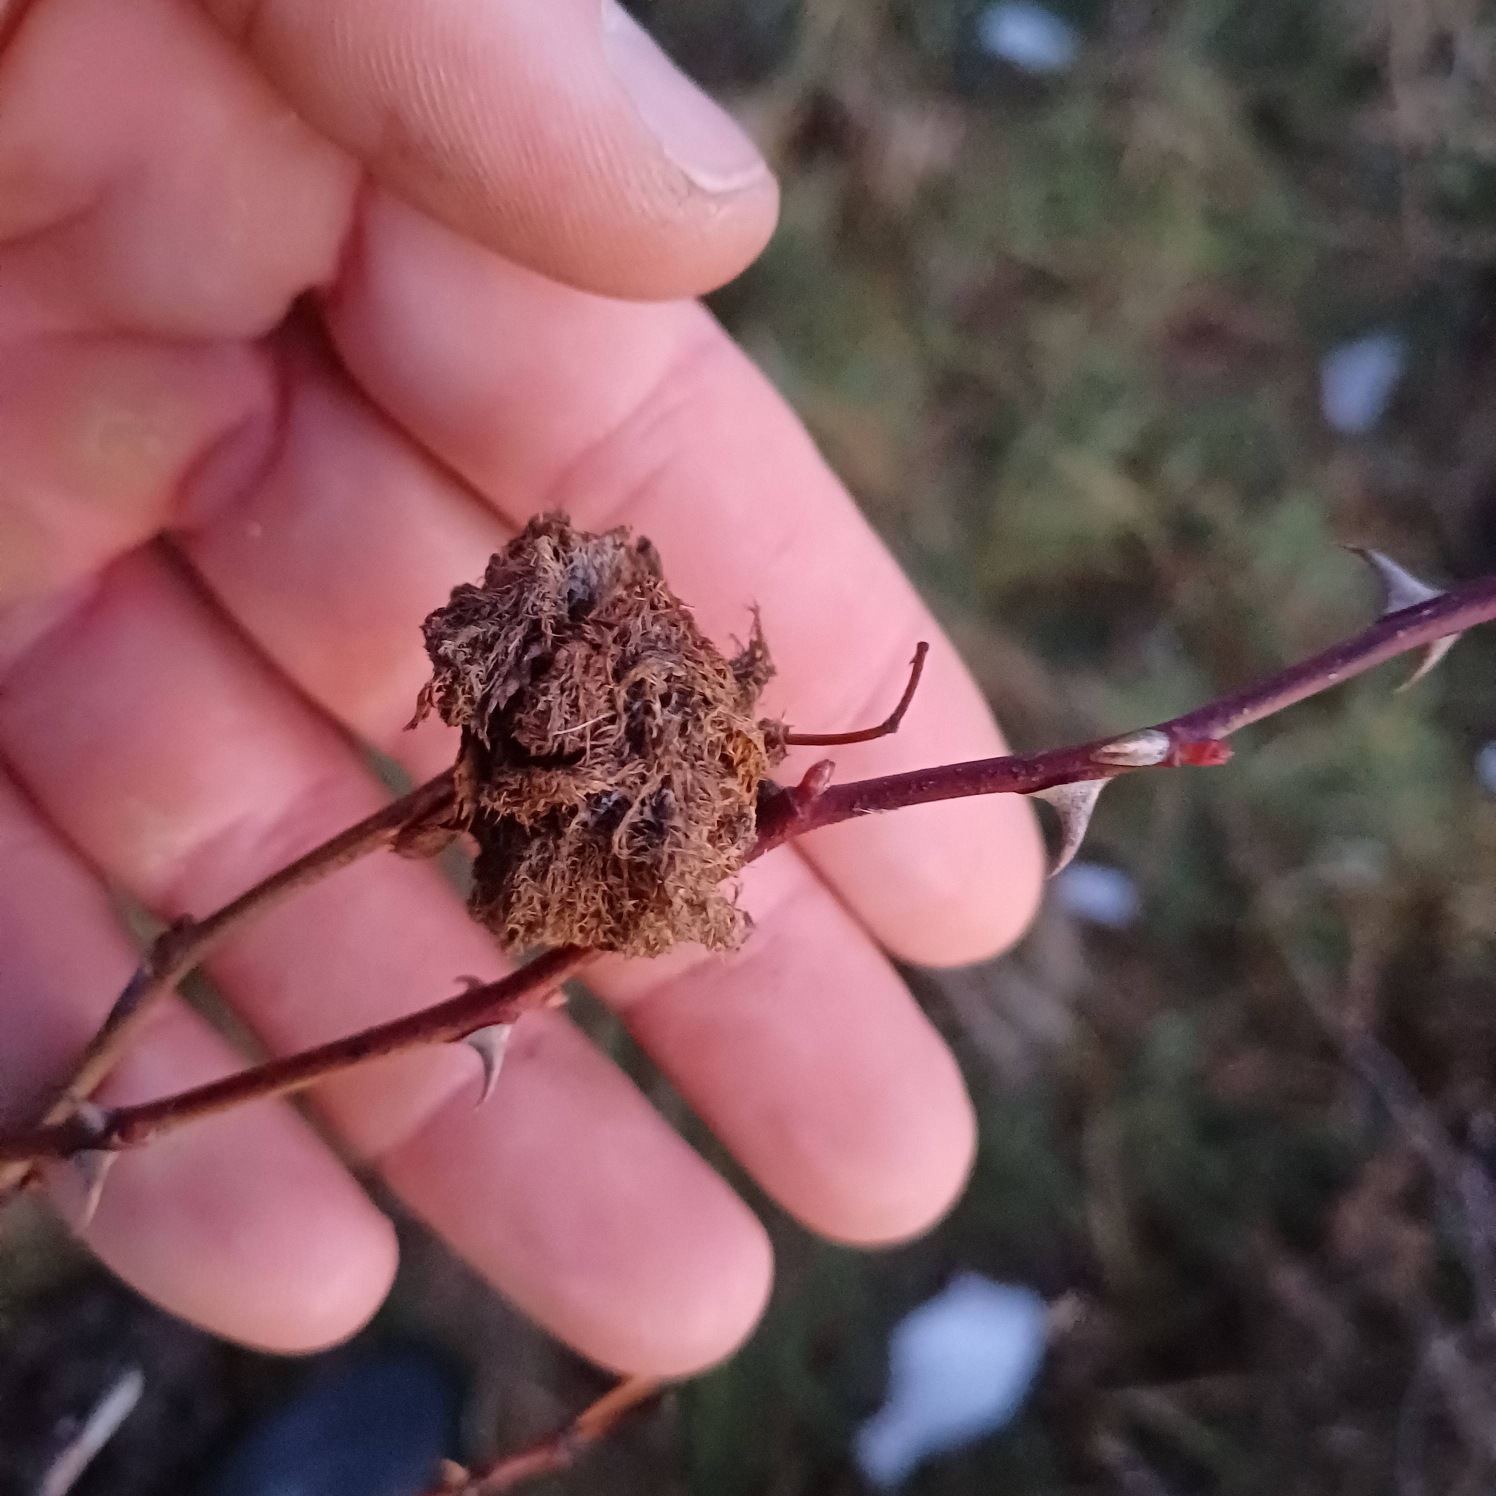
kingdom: Animalia
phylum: Arthropoda
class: Insecta
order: Hymenoptera
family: Cynipidae
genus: Diplolepis
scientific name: Diplolepis rosae
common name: Bedeguargalhveps
